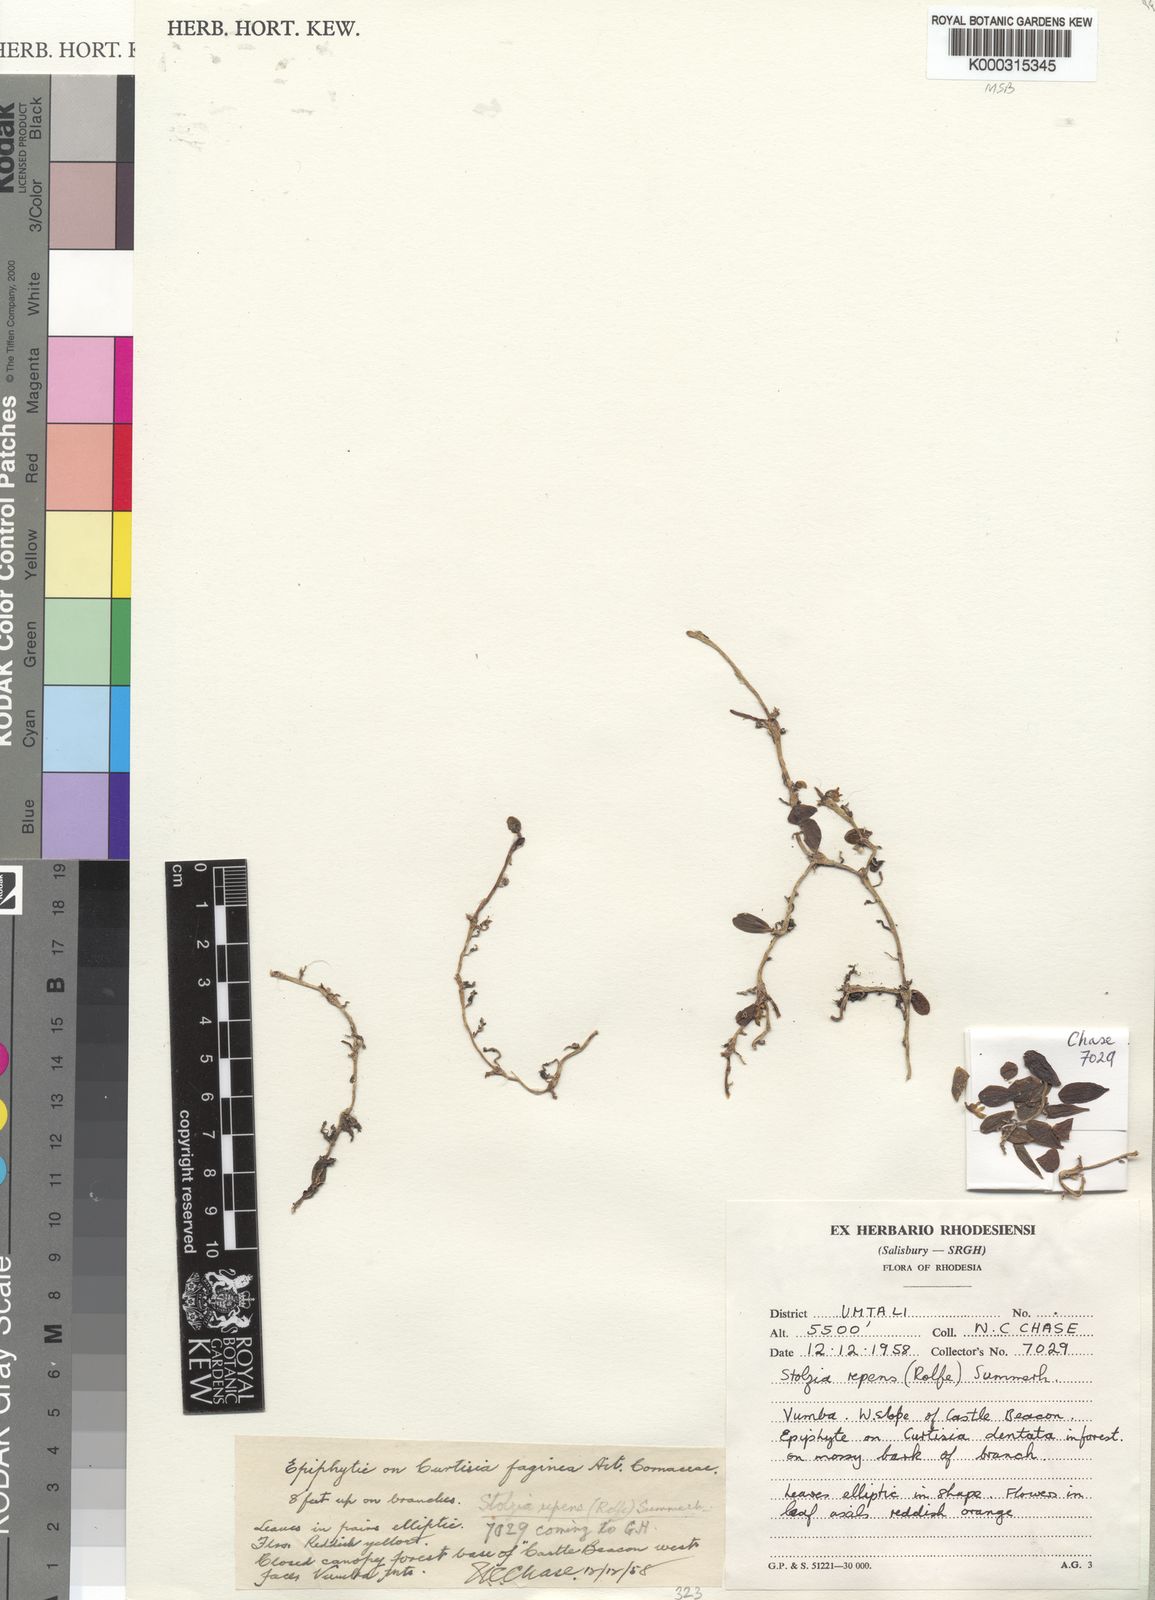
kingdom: Plantae
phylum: Tracheophyta
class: Liliopsida
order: Asparagales
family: Orchidaceae
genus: Porpax
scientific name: Porpax repens
